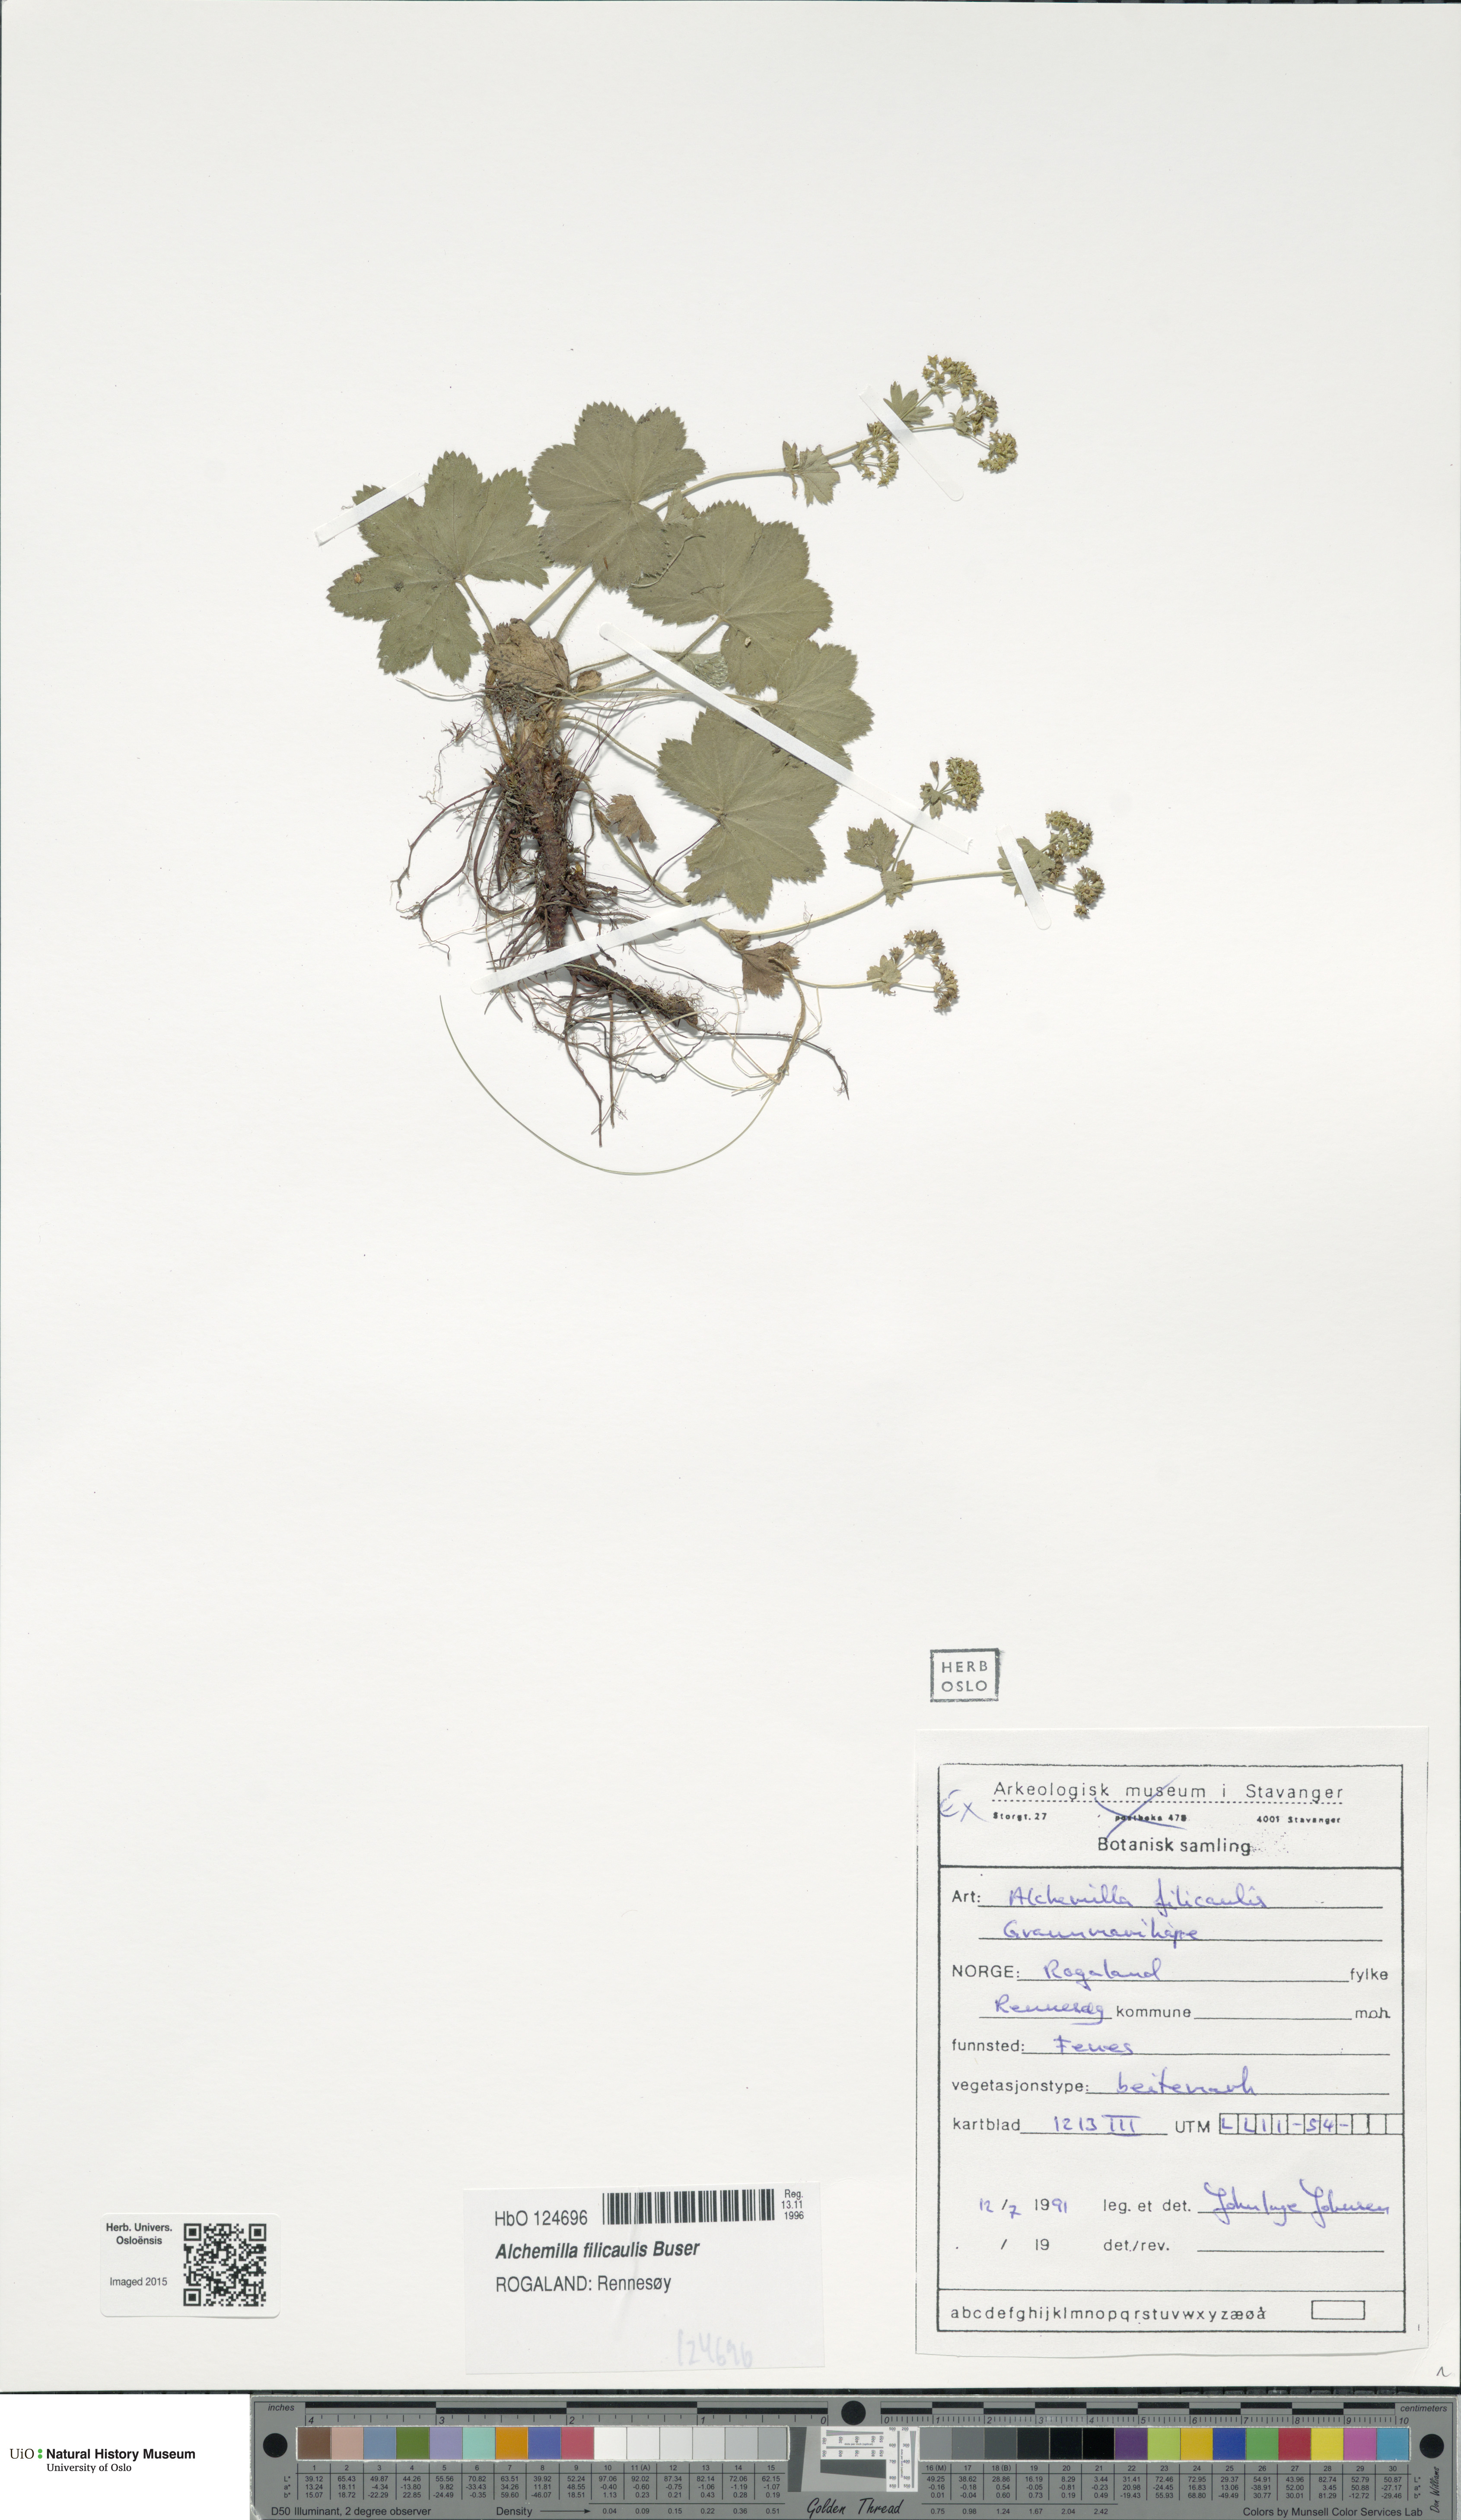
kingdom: Plantae
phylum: Tracheophyta
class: Magnoliopsida
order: Rosales
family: Rosaceae
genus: Alchemilla
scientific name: Alchemilla filicaulis
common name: Hairy lady's-mantle
